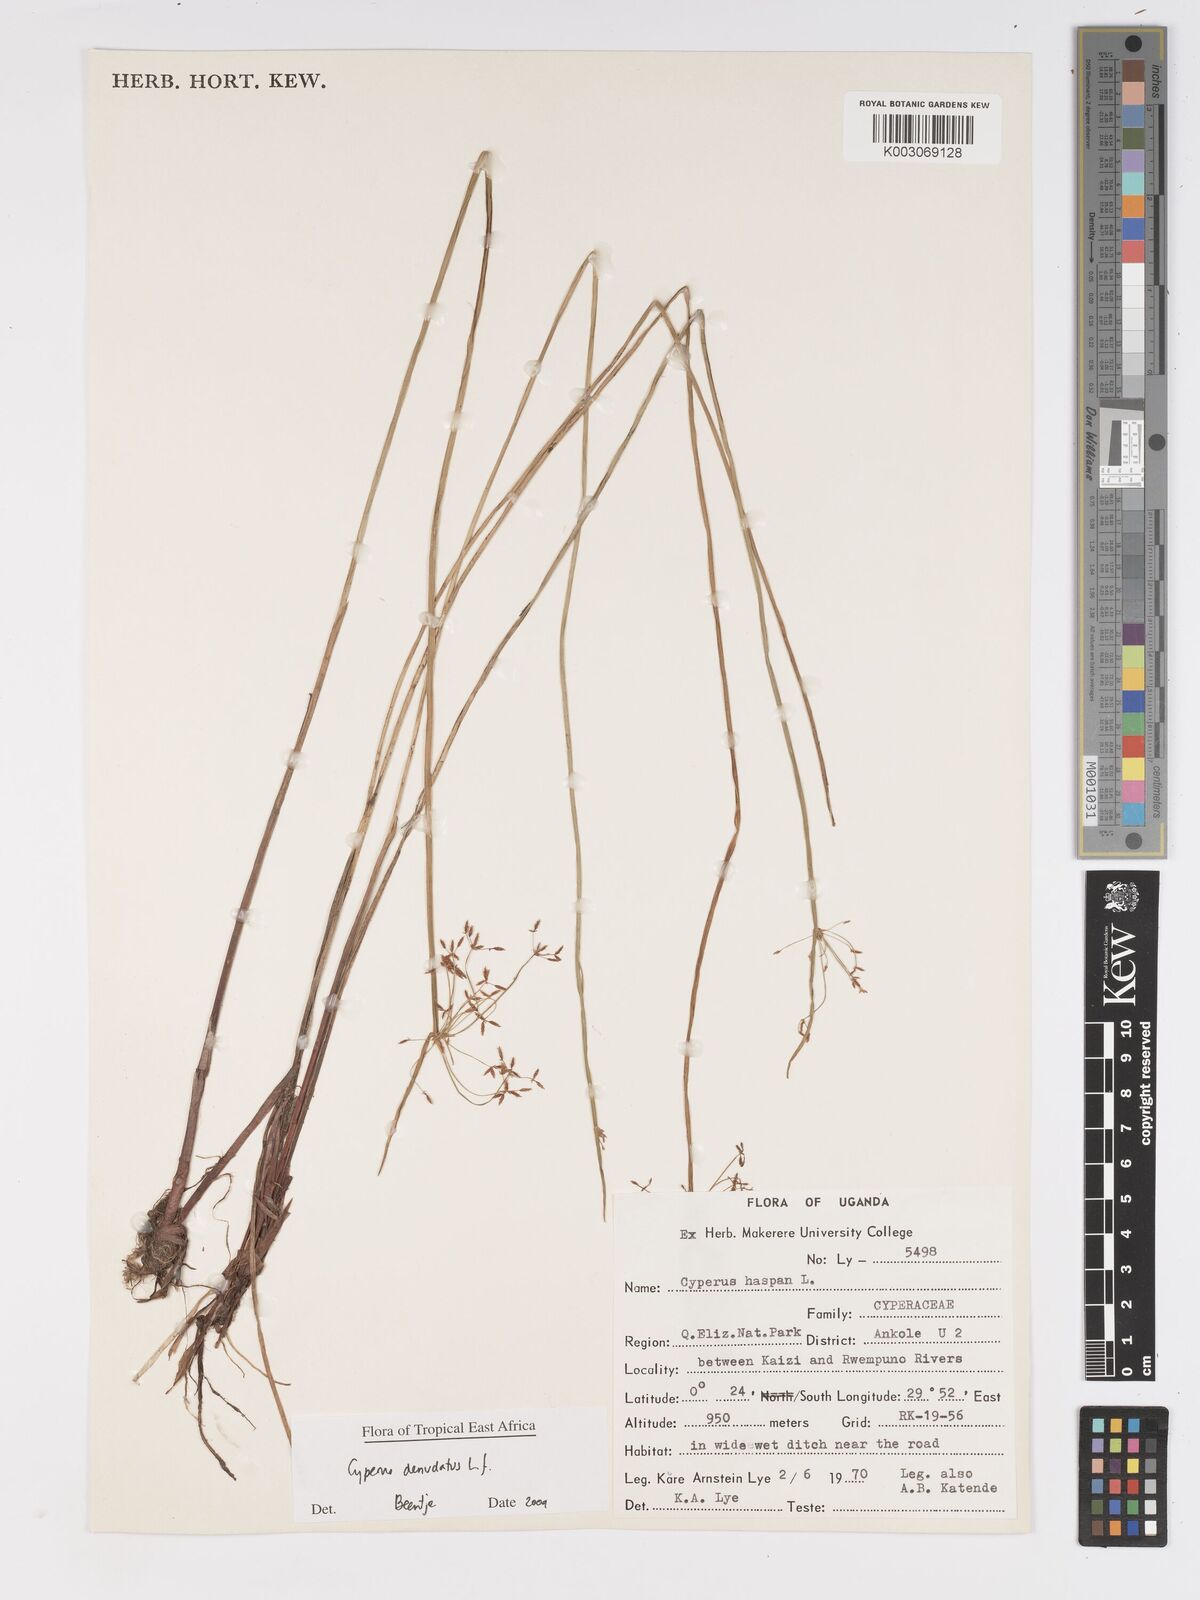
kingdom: Plantae
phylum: Tracheophyta
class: Liliopsida
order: Poales
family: Cyperaceae
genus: Cyperus
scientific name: Cyperus platycaulis
